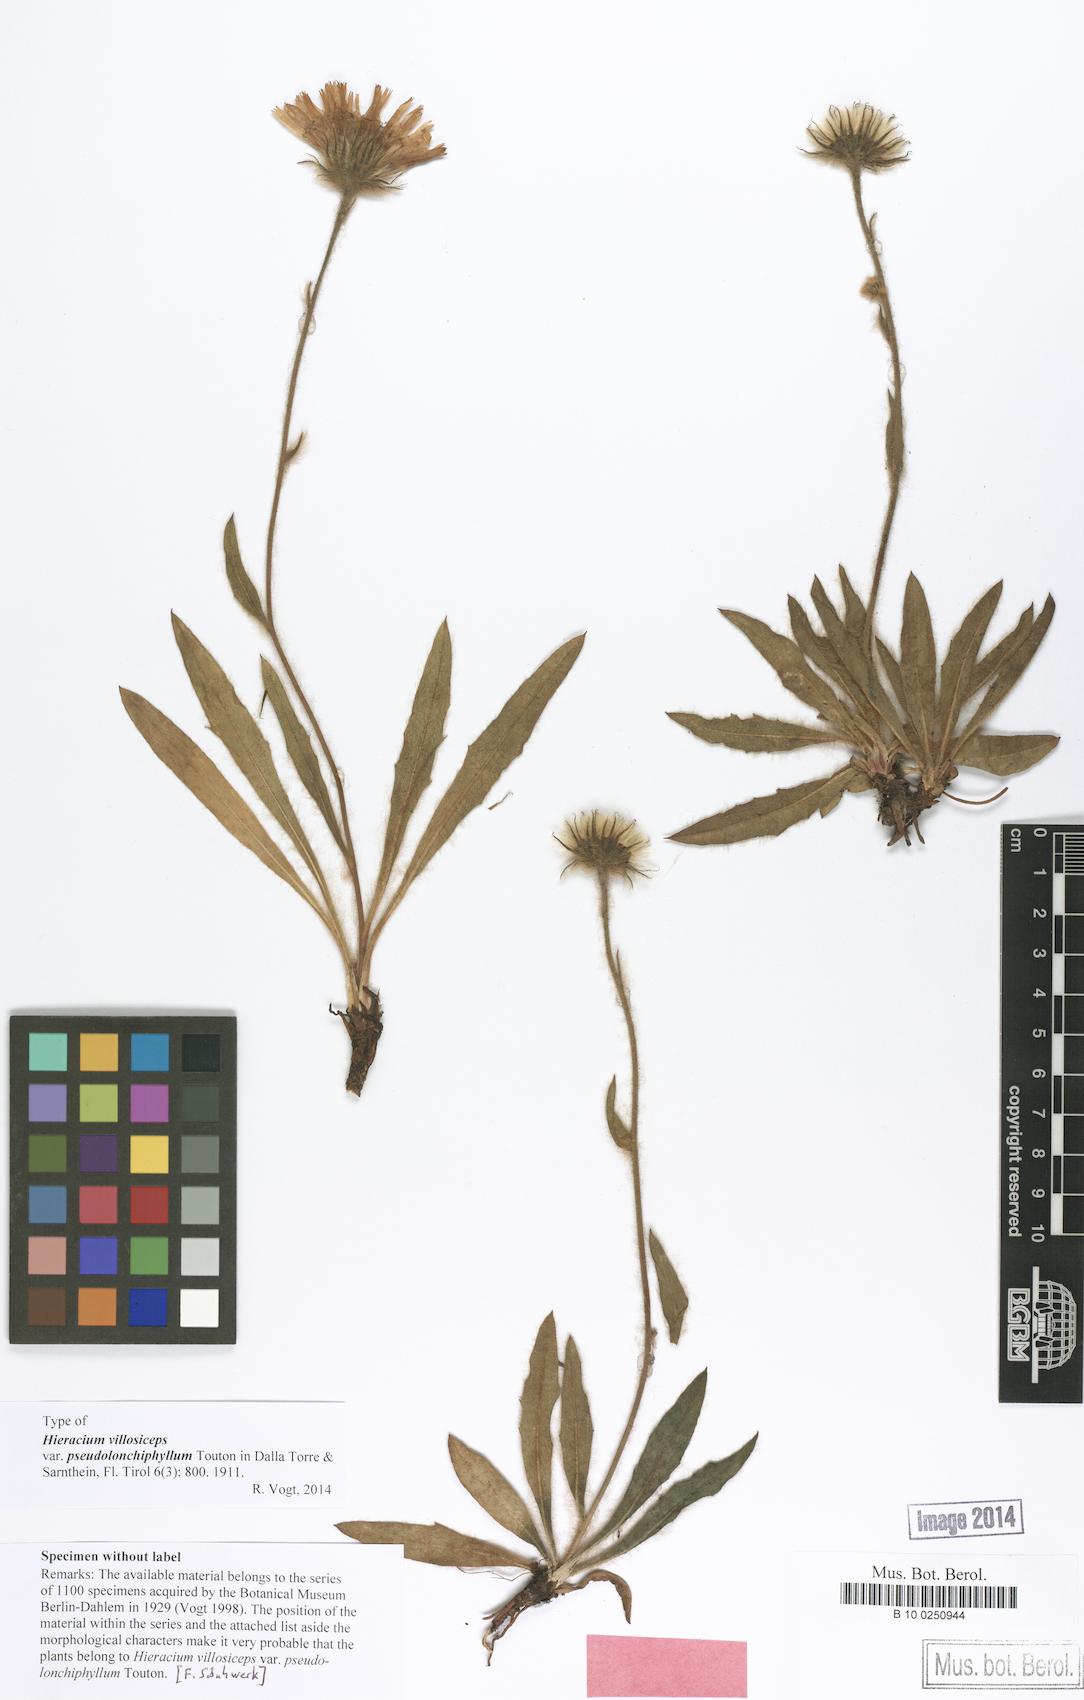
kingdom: Plantae
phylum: Tracheophyta
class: Magnoliopsida
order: Asterales
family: Asteraceae
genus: Hieracium
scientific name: Hieracium
